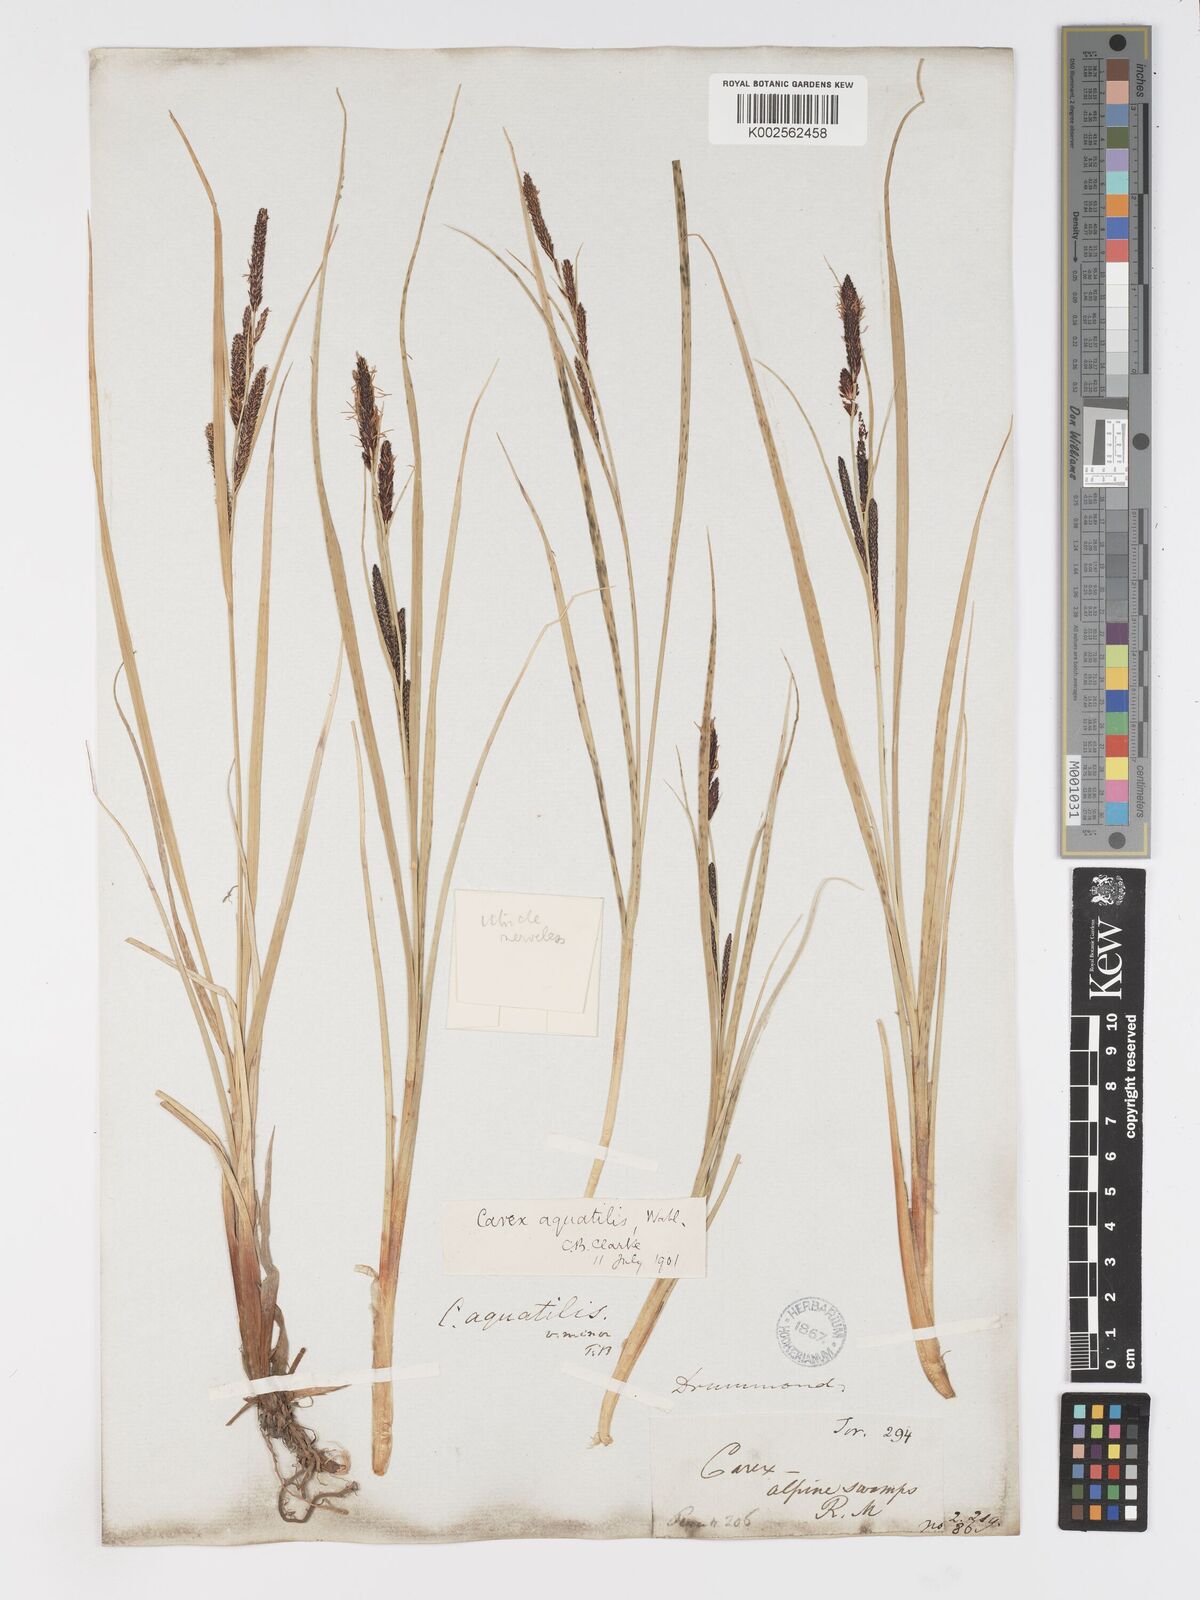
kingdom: Plantae
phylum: Tracheophyta
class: Liliopsida
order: Poales
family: Cyperaceae
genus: Carex
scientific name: Carex
